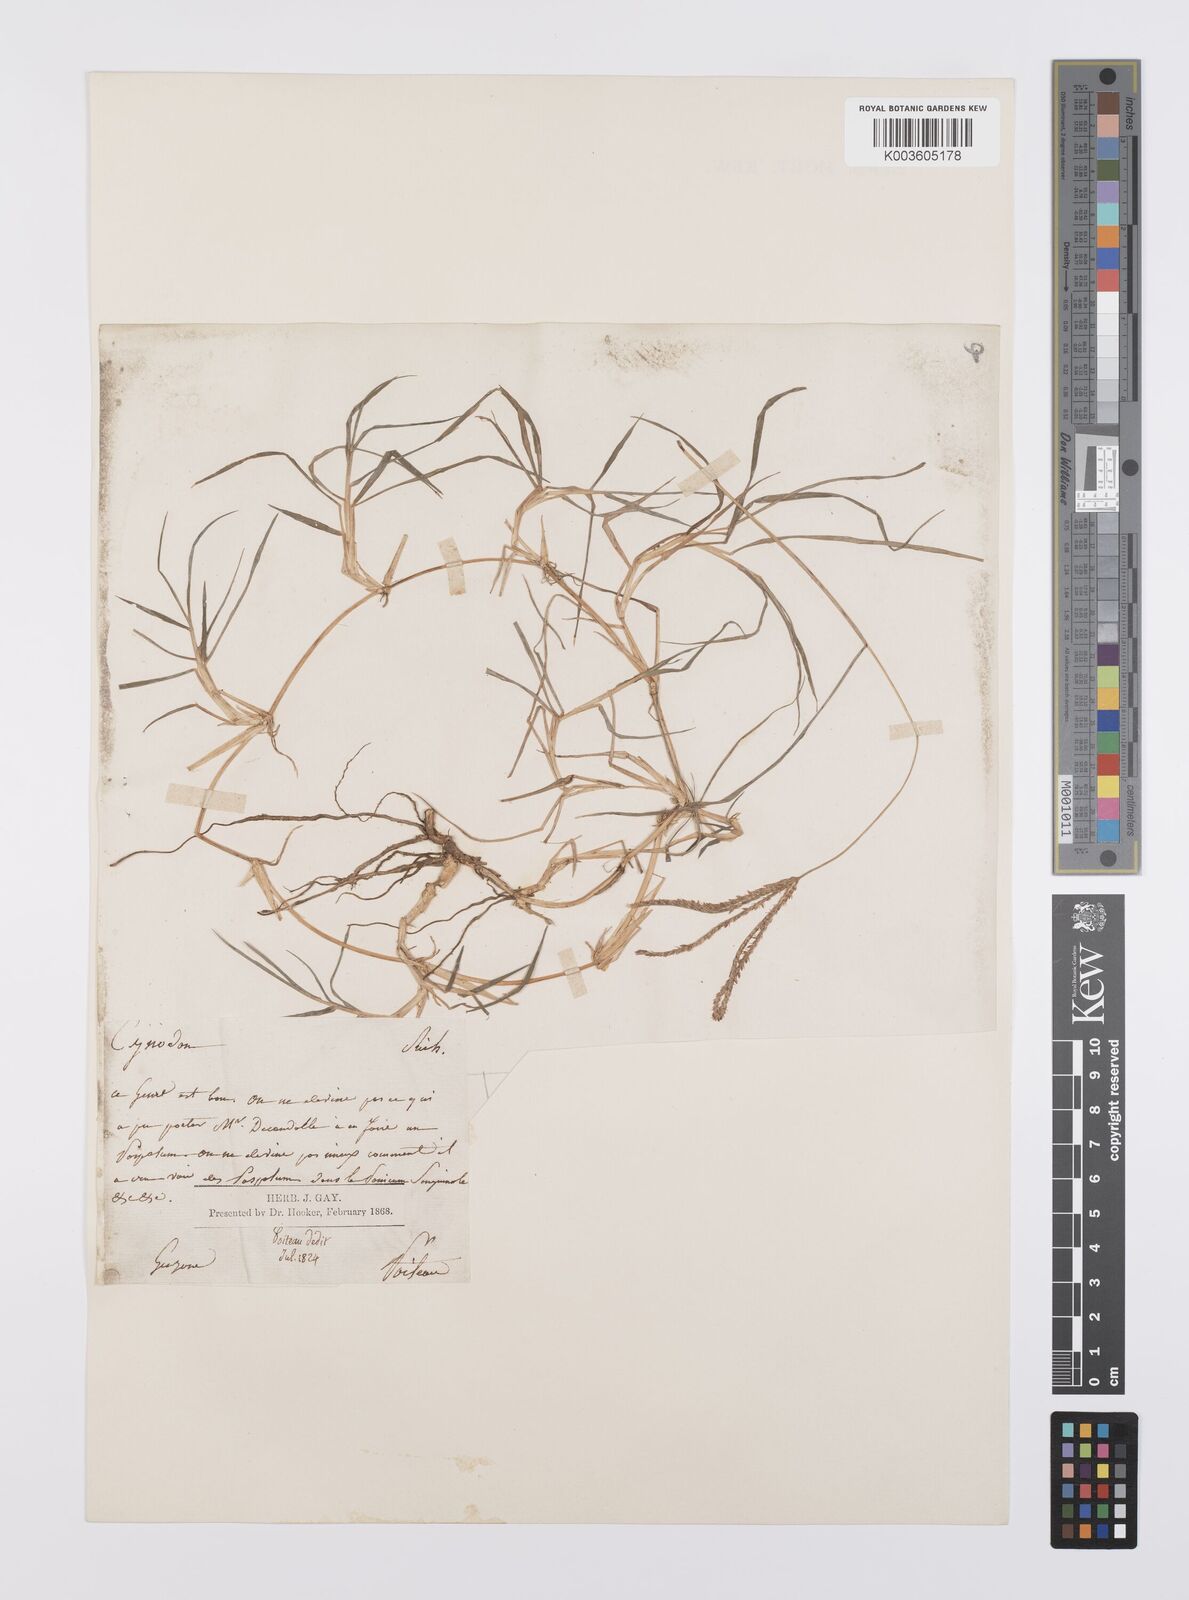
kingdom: Plantae
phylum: Tracheophyta
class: Liliopsida
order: Poales
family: Poaceae
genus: Cynodon
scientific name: Cynodon dactylon
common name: Bermuda grass
